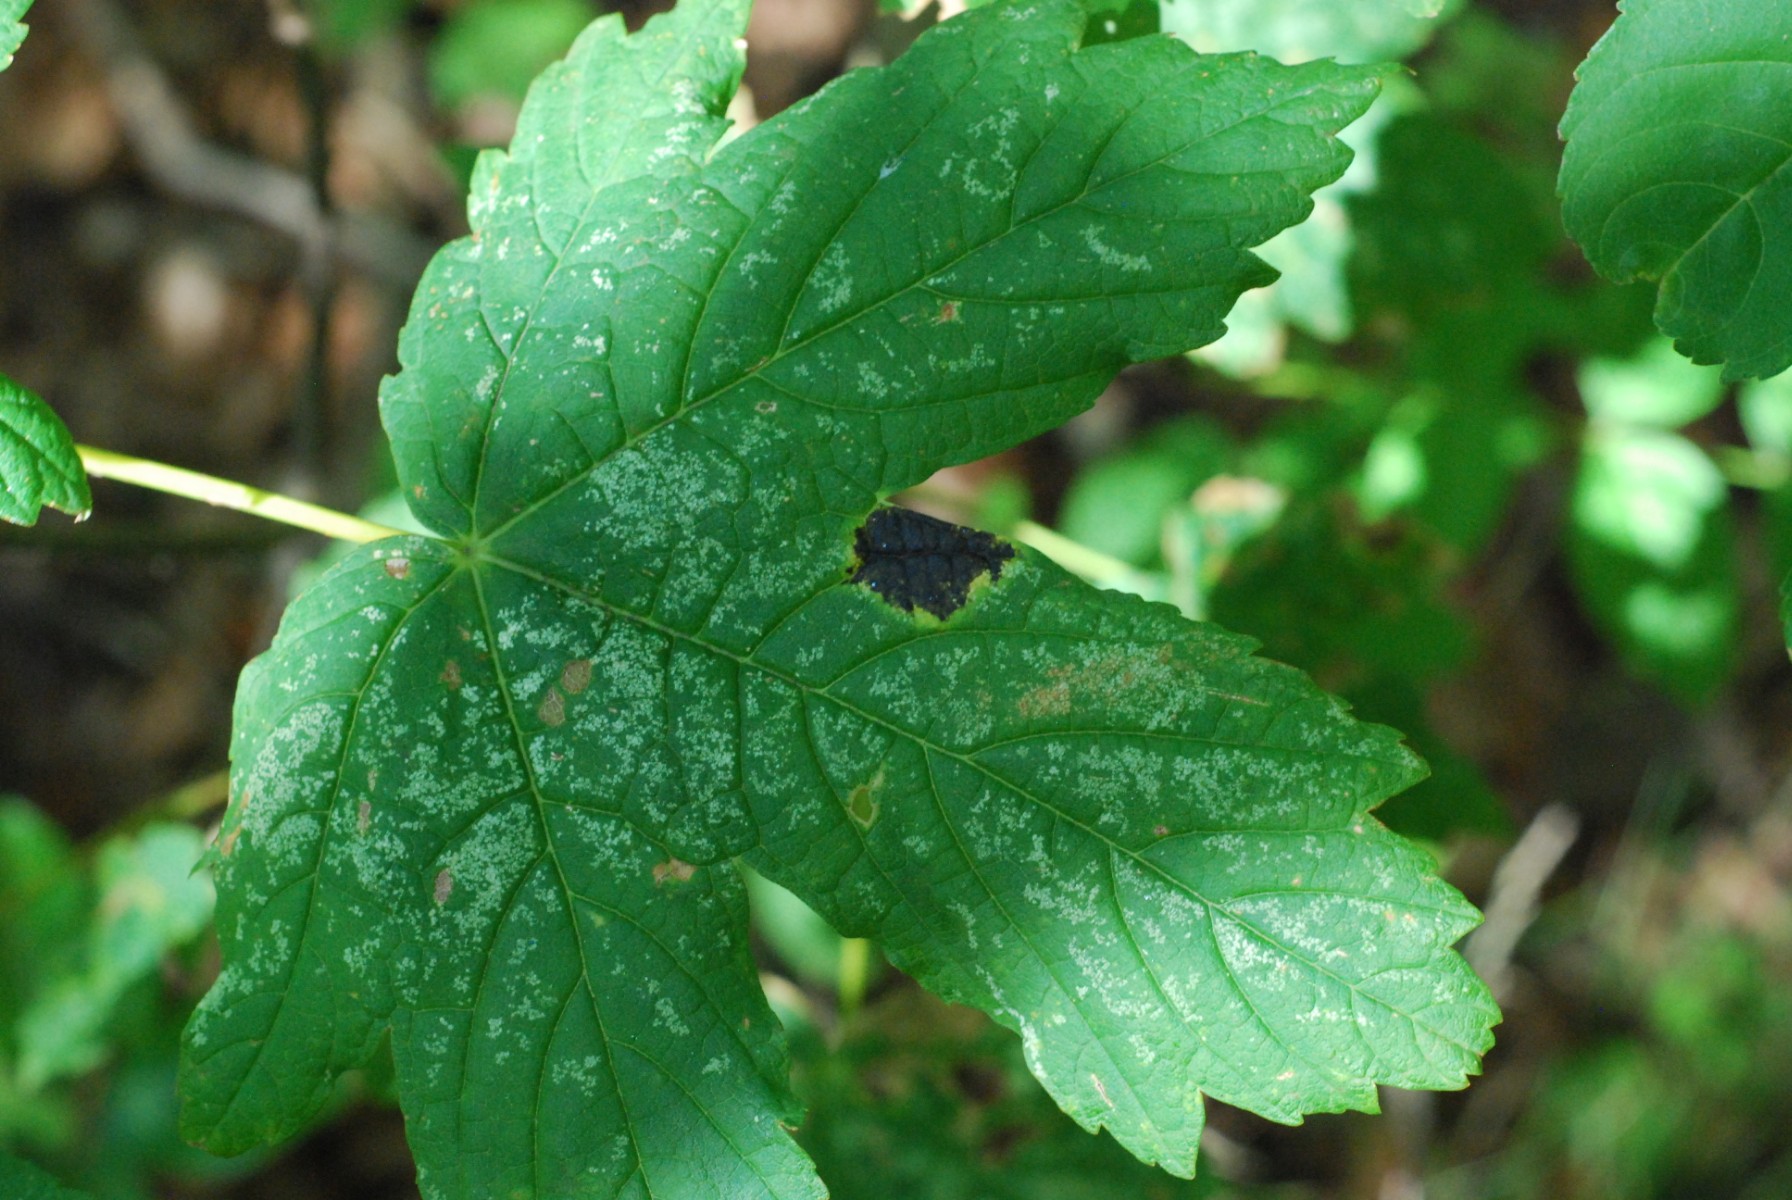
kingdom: Fungi
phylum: Ascomycota
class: Leotiomycetes
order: Rhytismatales
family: Rhytismataceae
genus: Rhytisma
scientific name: Rhytisma acerinum
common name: ahorn-rynkeplet
